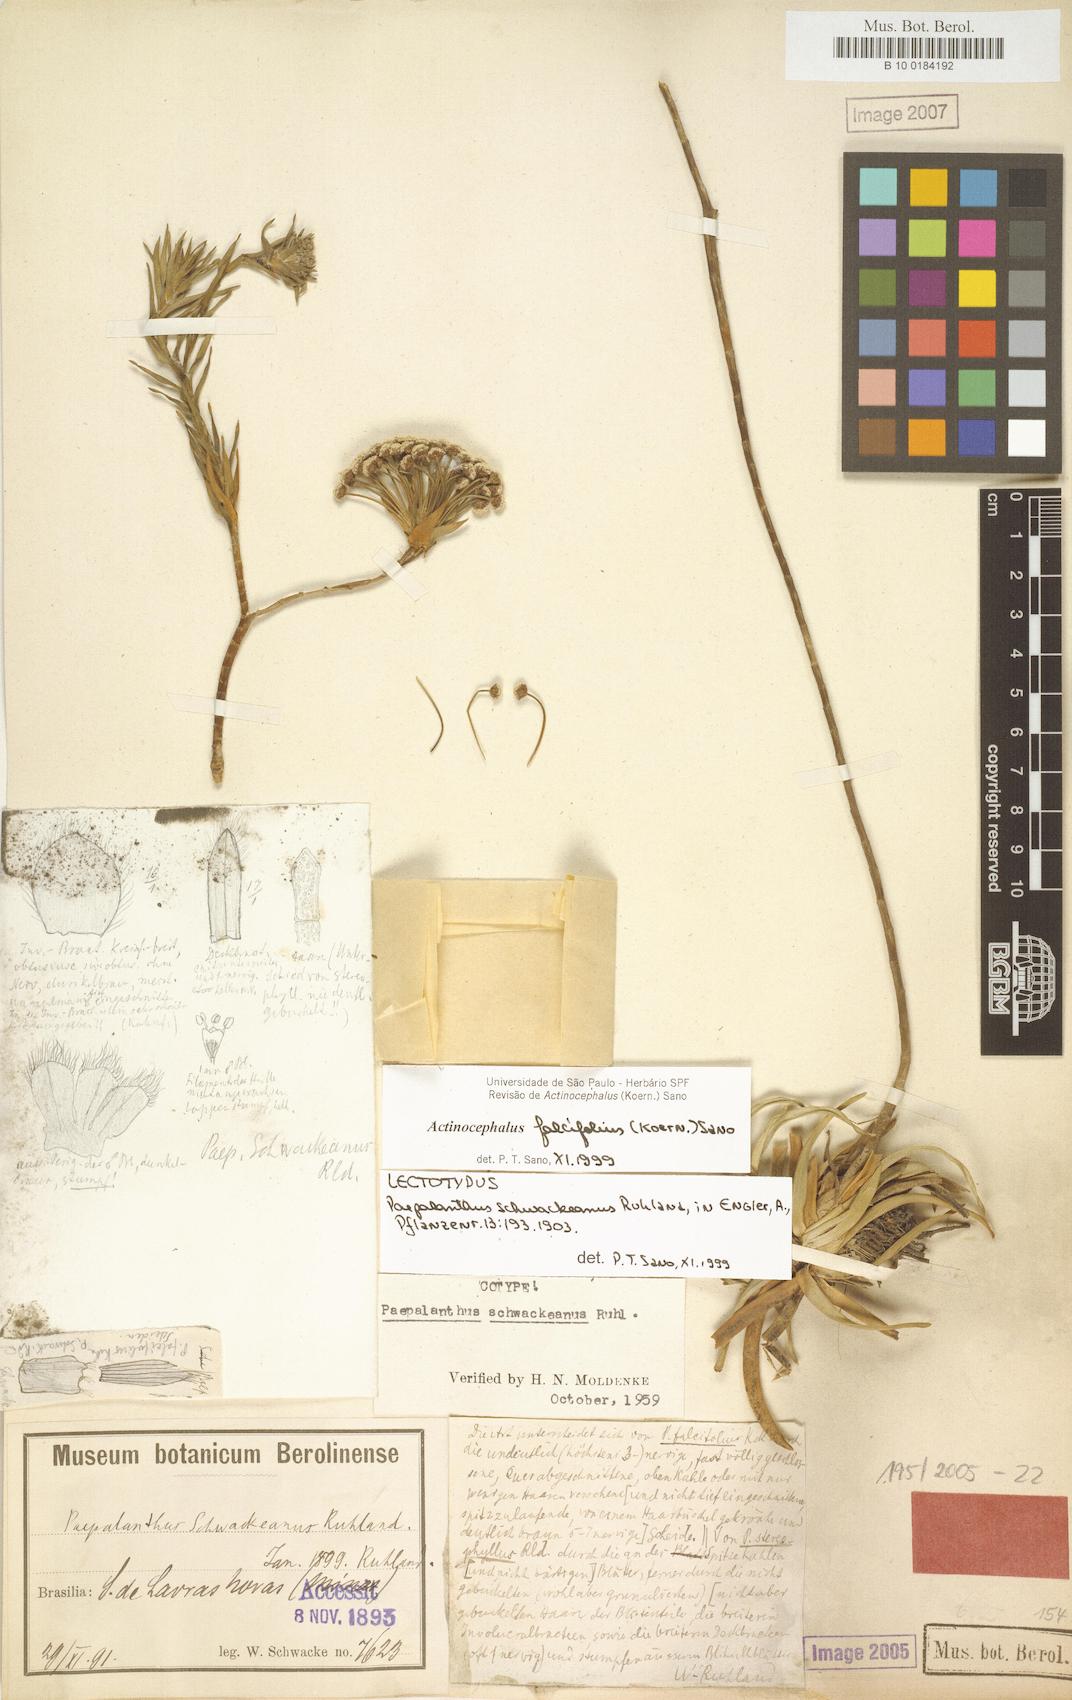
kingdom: Plantae
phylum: Tracheophyta
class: Liliopsida
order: Poales
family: Eriocaulaceae
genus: Paepalanthus
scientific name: Paepalanthus falcifolius
